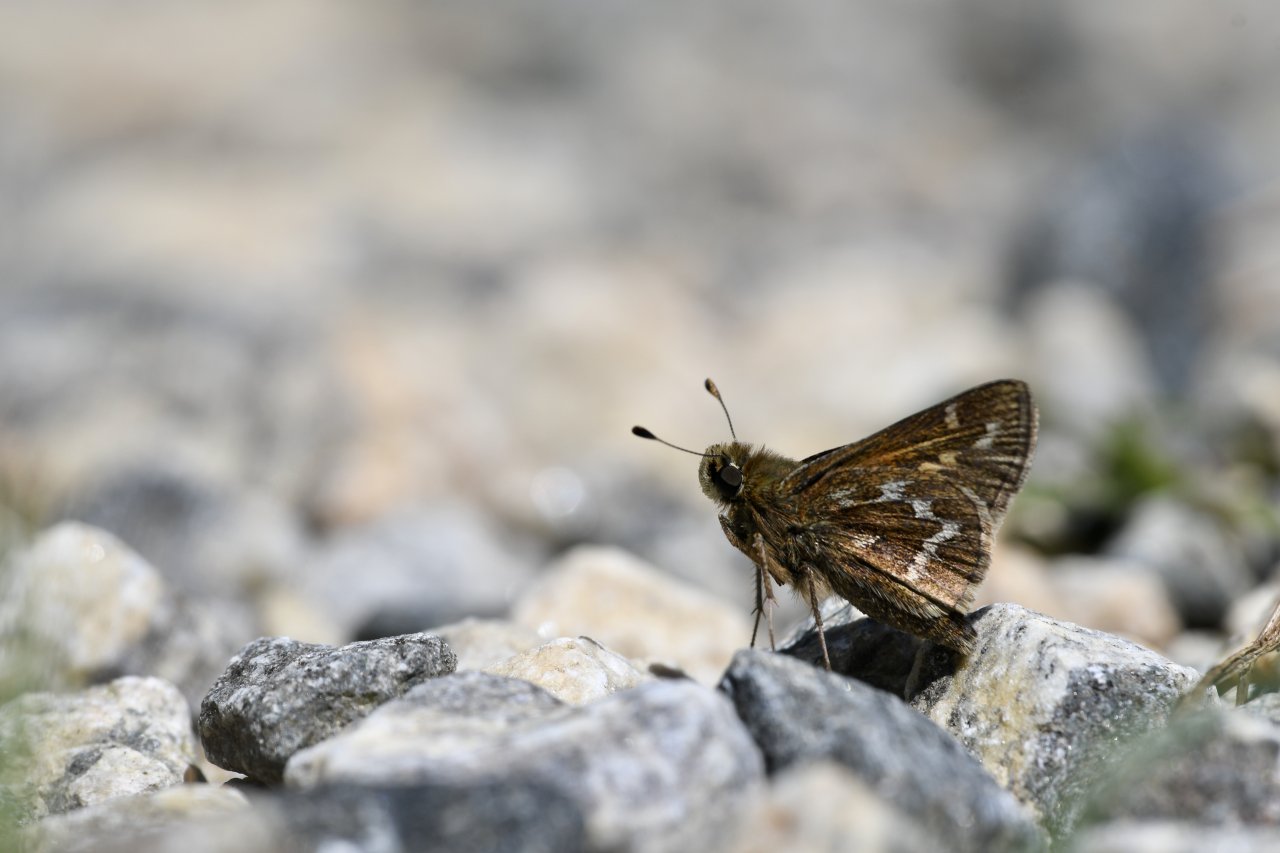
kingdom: Animalia
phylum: Arthropoda
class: Insecta
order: Lepidoptera
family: Hesperiidae
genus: Hesperia
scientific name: Hesperia metea
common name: Cobweb Skipper
